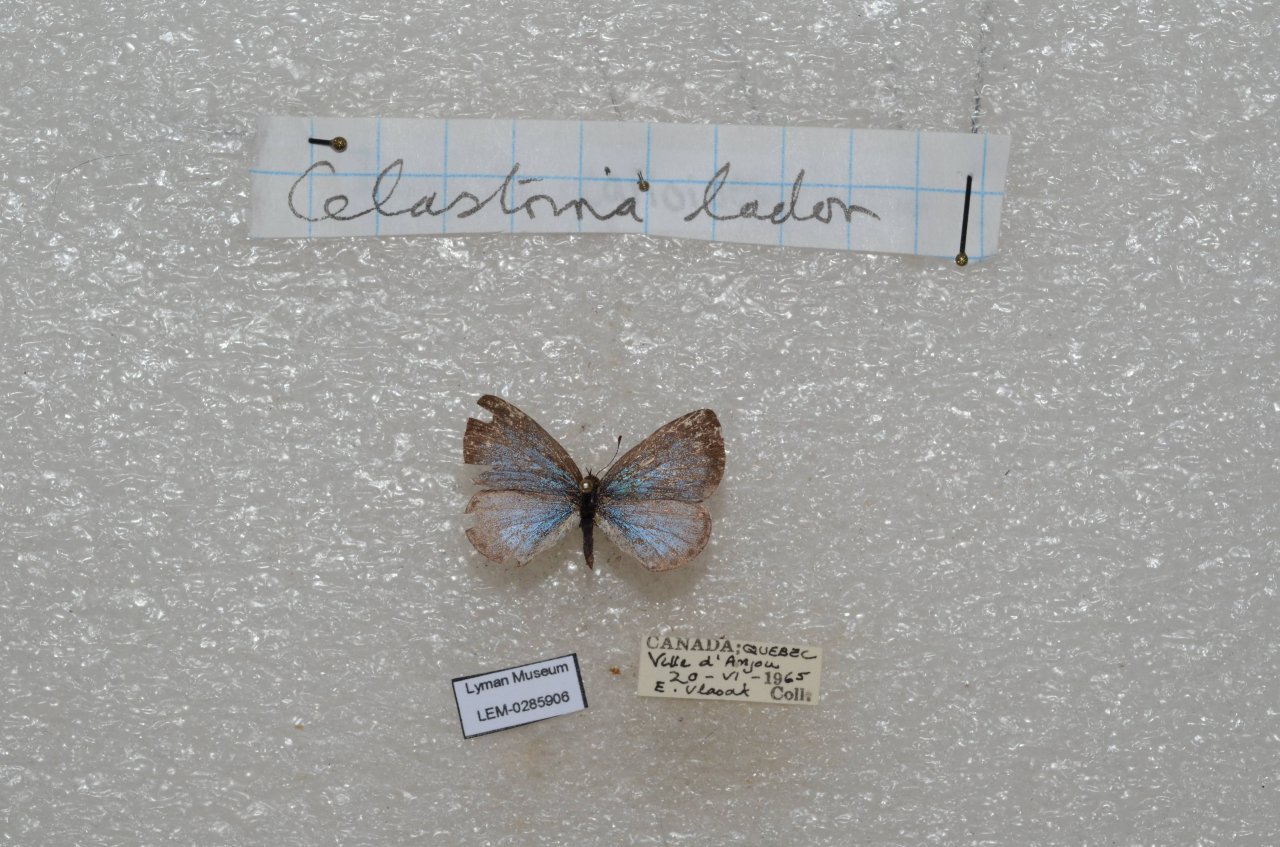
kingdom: Animalia
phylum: Arthropoda
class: Insecta
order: Lepidoptera
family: Lycaenidae
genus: Celastrina
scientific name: Celastrina lucia
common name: Northern Spring Azure
